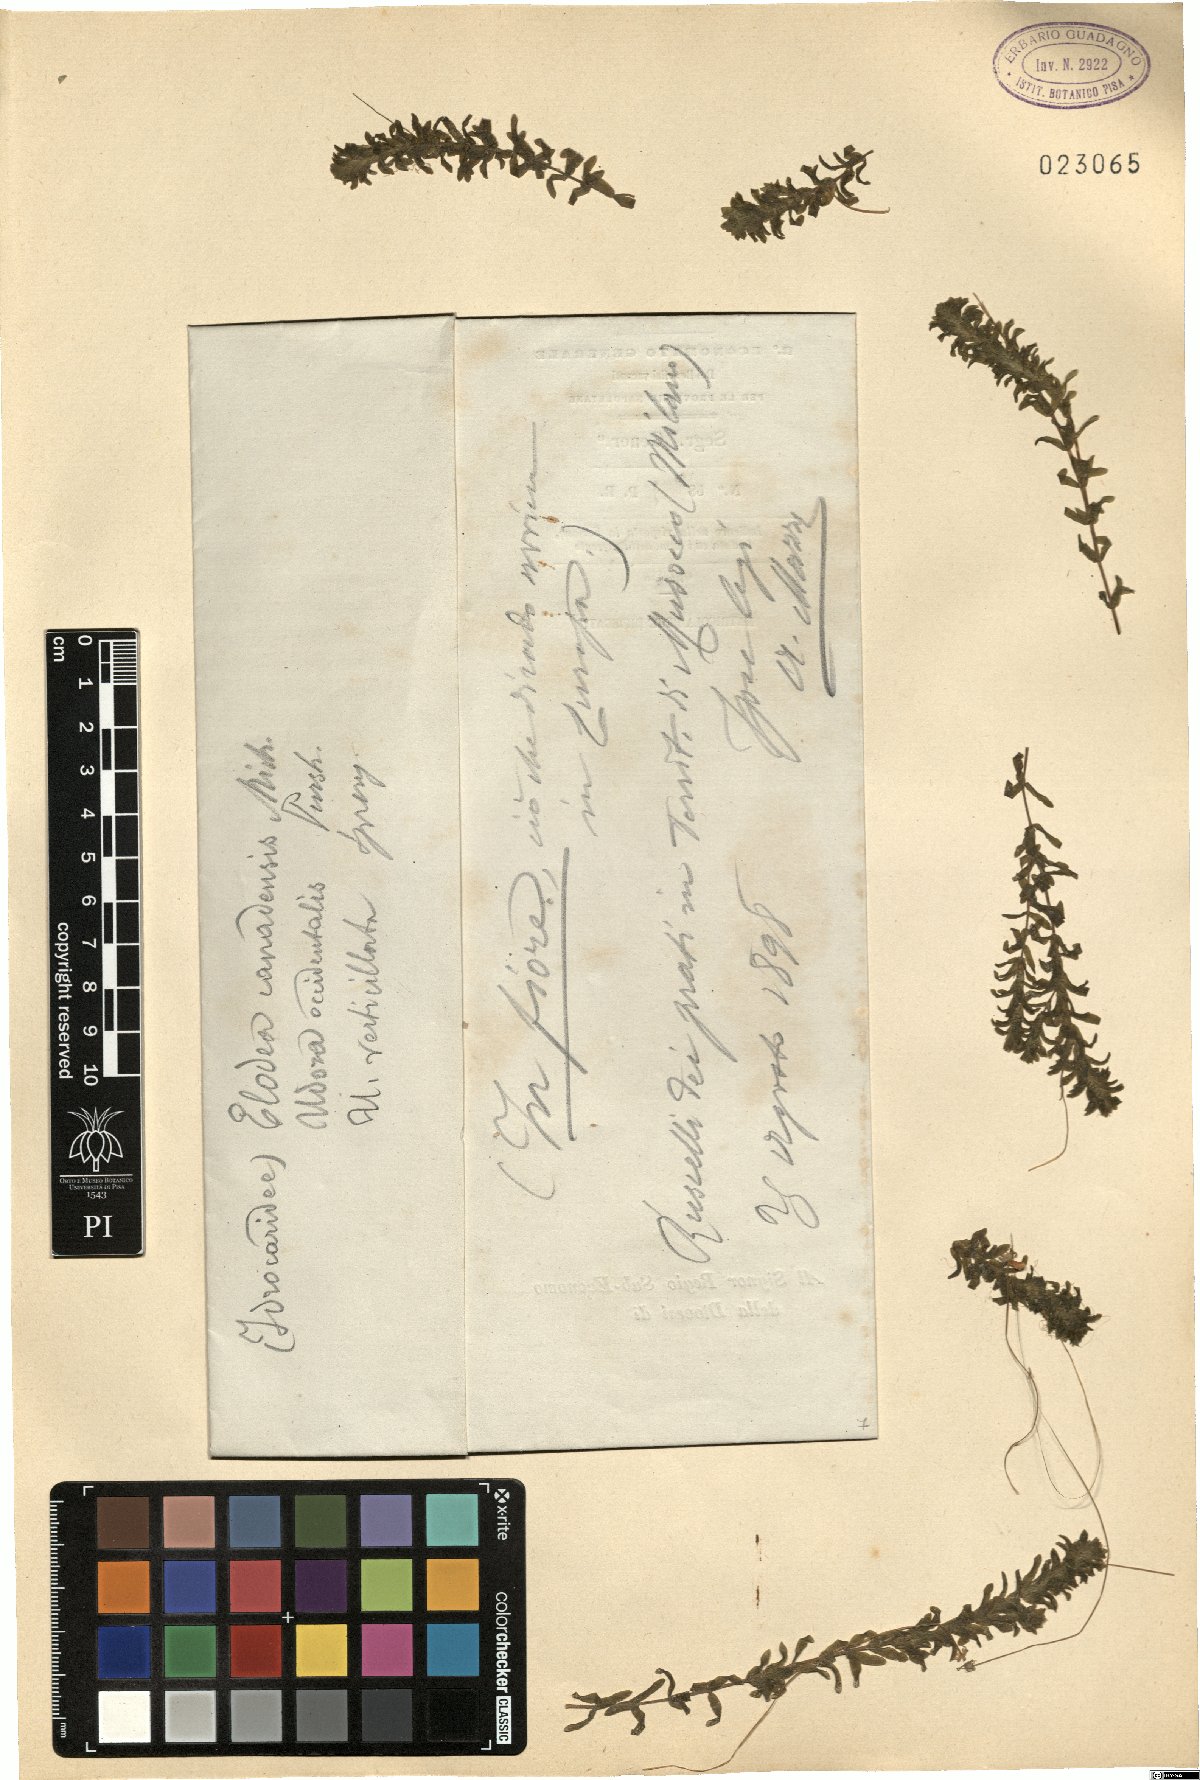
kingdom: Plantae
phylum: Tracheophyta
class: Liliopsida
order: Alismatales
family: Hydrocharitaceae
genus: Elodea
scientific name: Elodea canadensis
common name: Canadian waterweed
